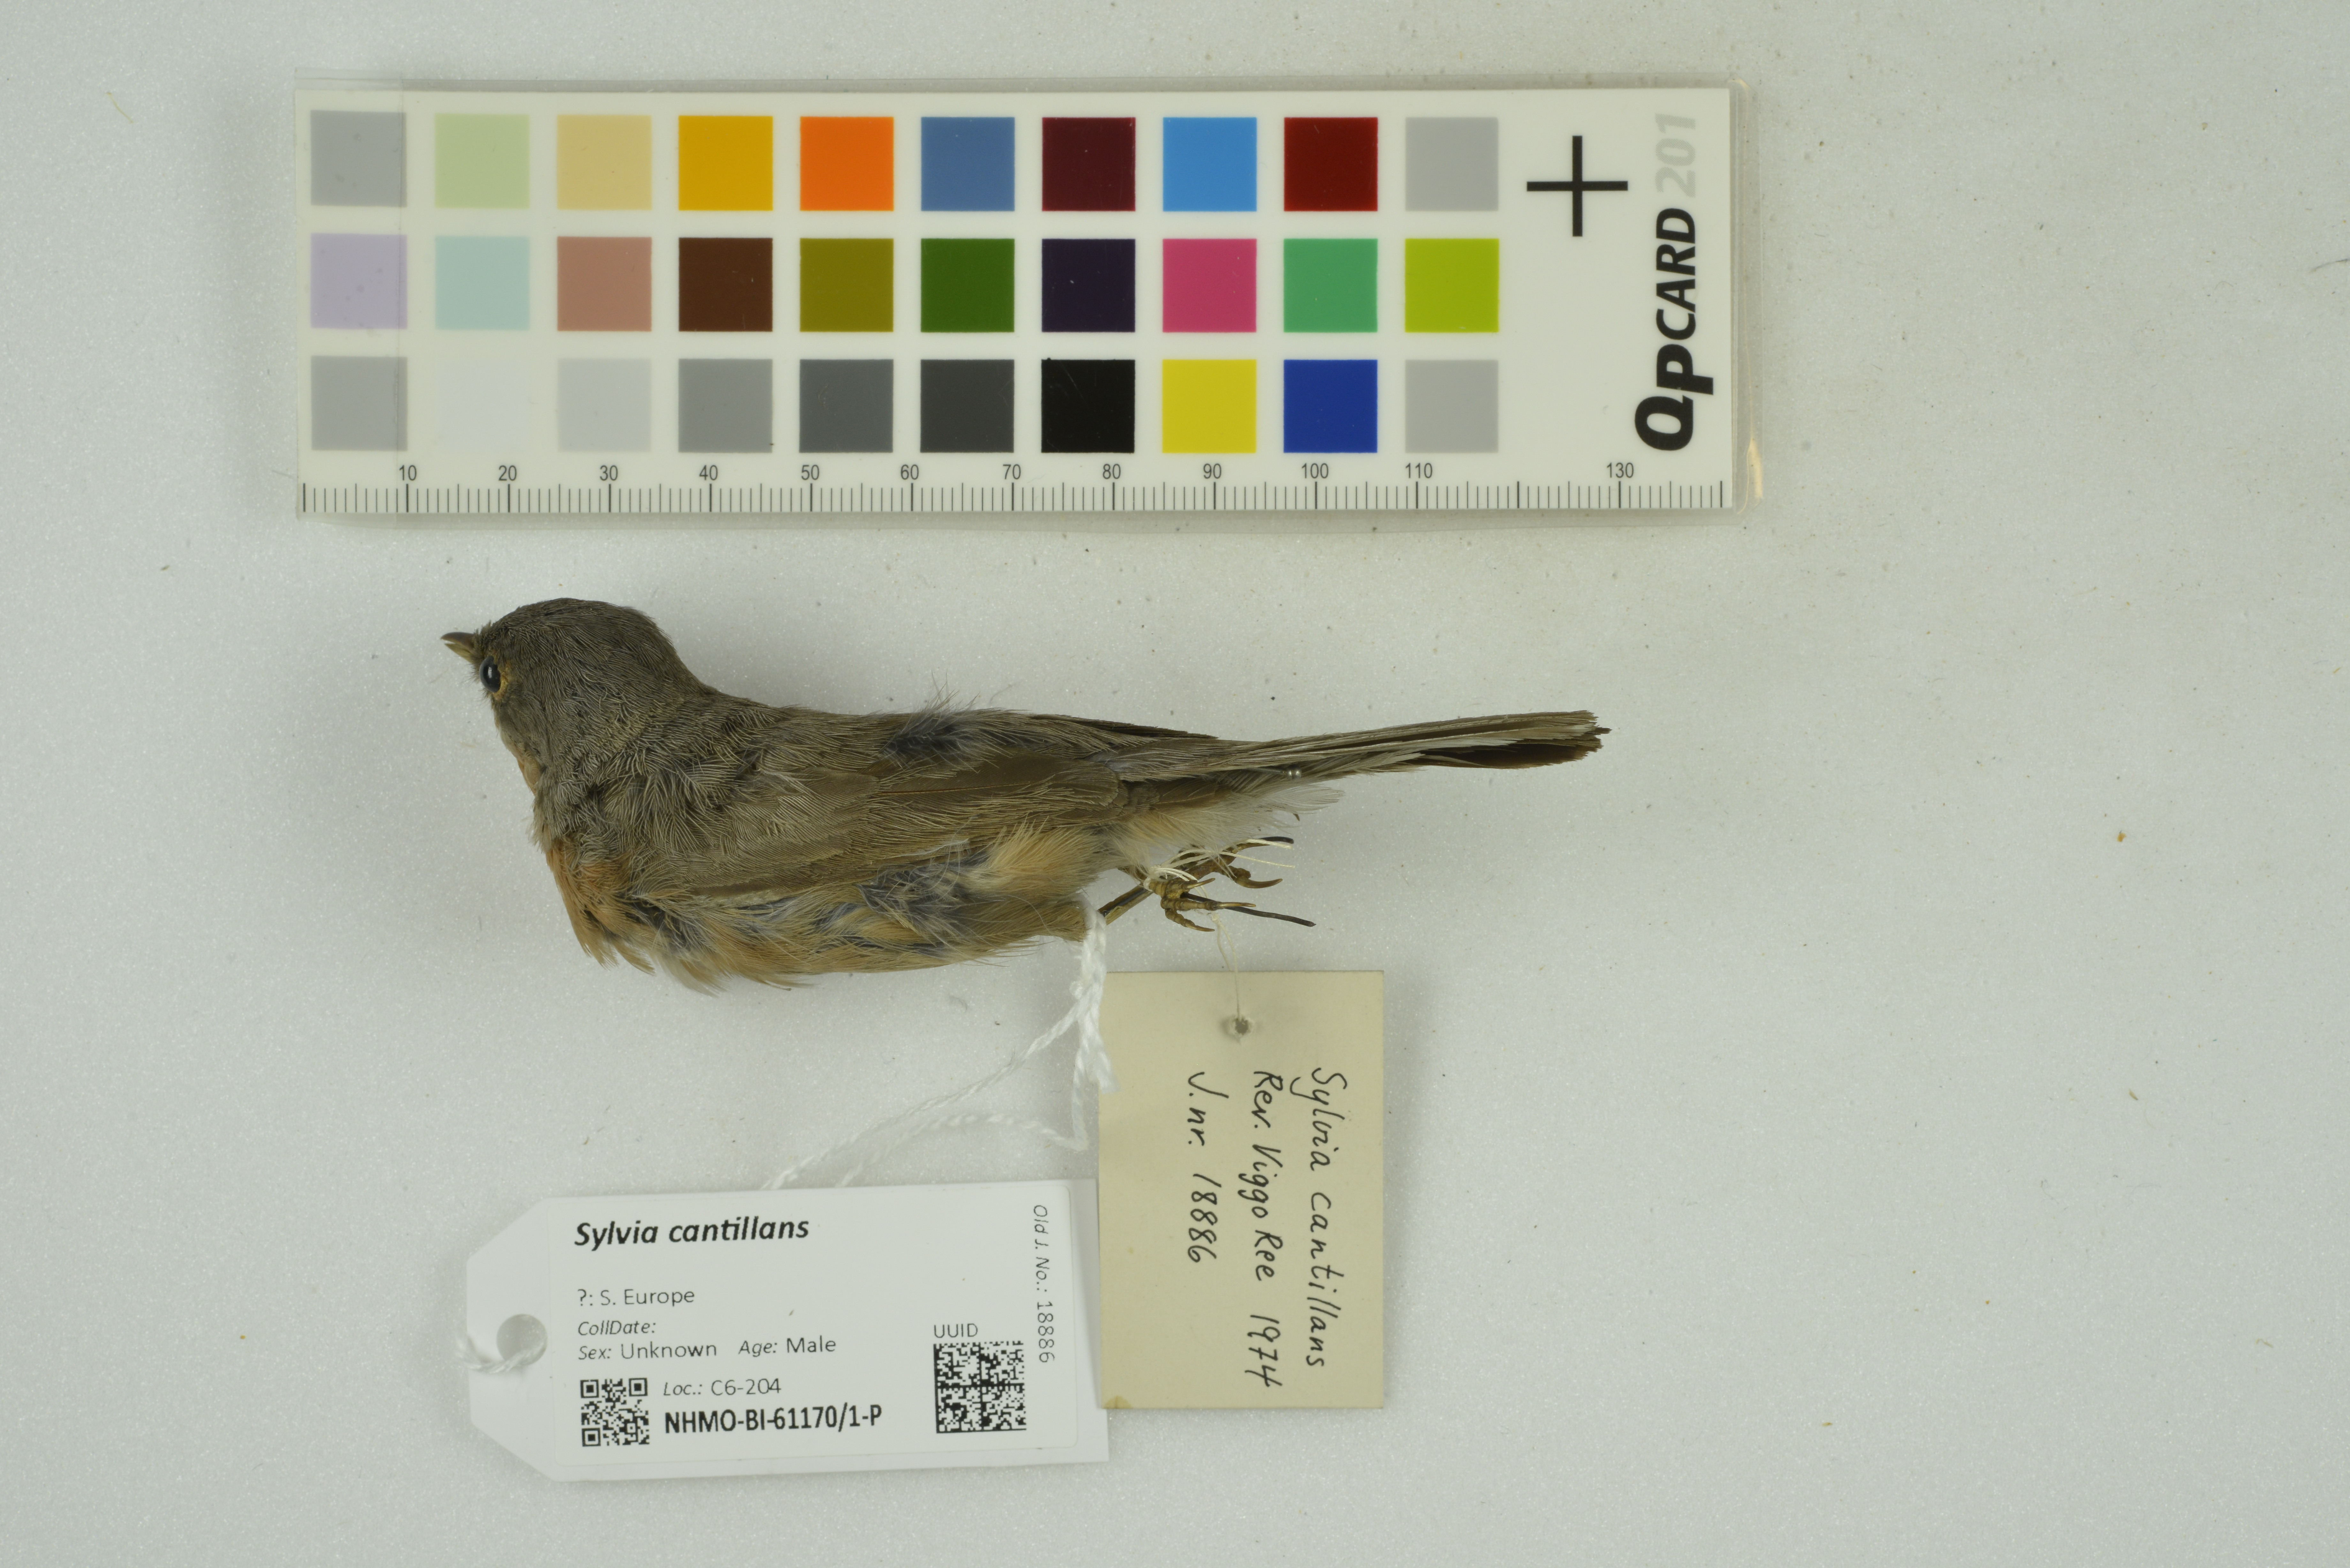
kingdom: Animalia
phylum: Chordata
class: Aves
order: Passeriformes
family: Sylviidae
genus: Curruca
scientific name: Curruca cantillans
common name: Subalpine warbler
